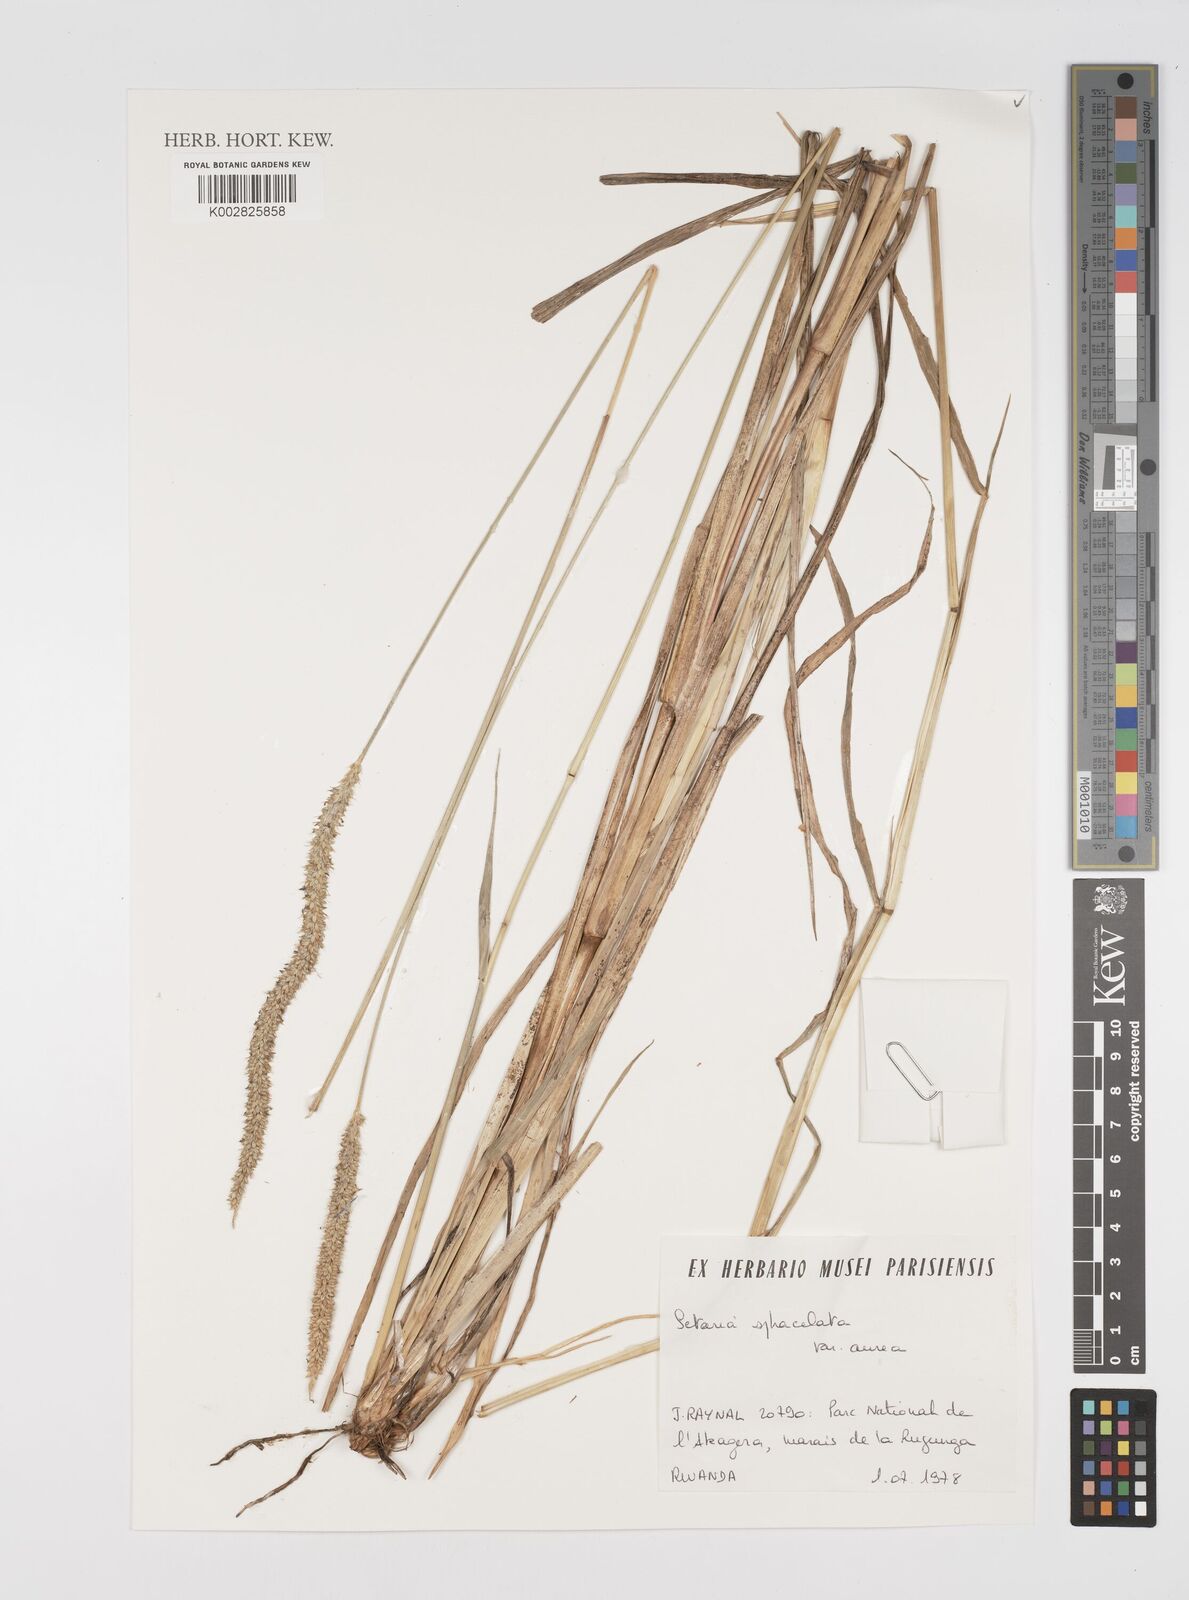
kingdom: Plantae
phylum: Tracheophyta
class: Liliopsida
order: Poales
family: Poaceae
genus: Setaria
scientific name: Setaria sphacelata
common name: African bristlegrass
